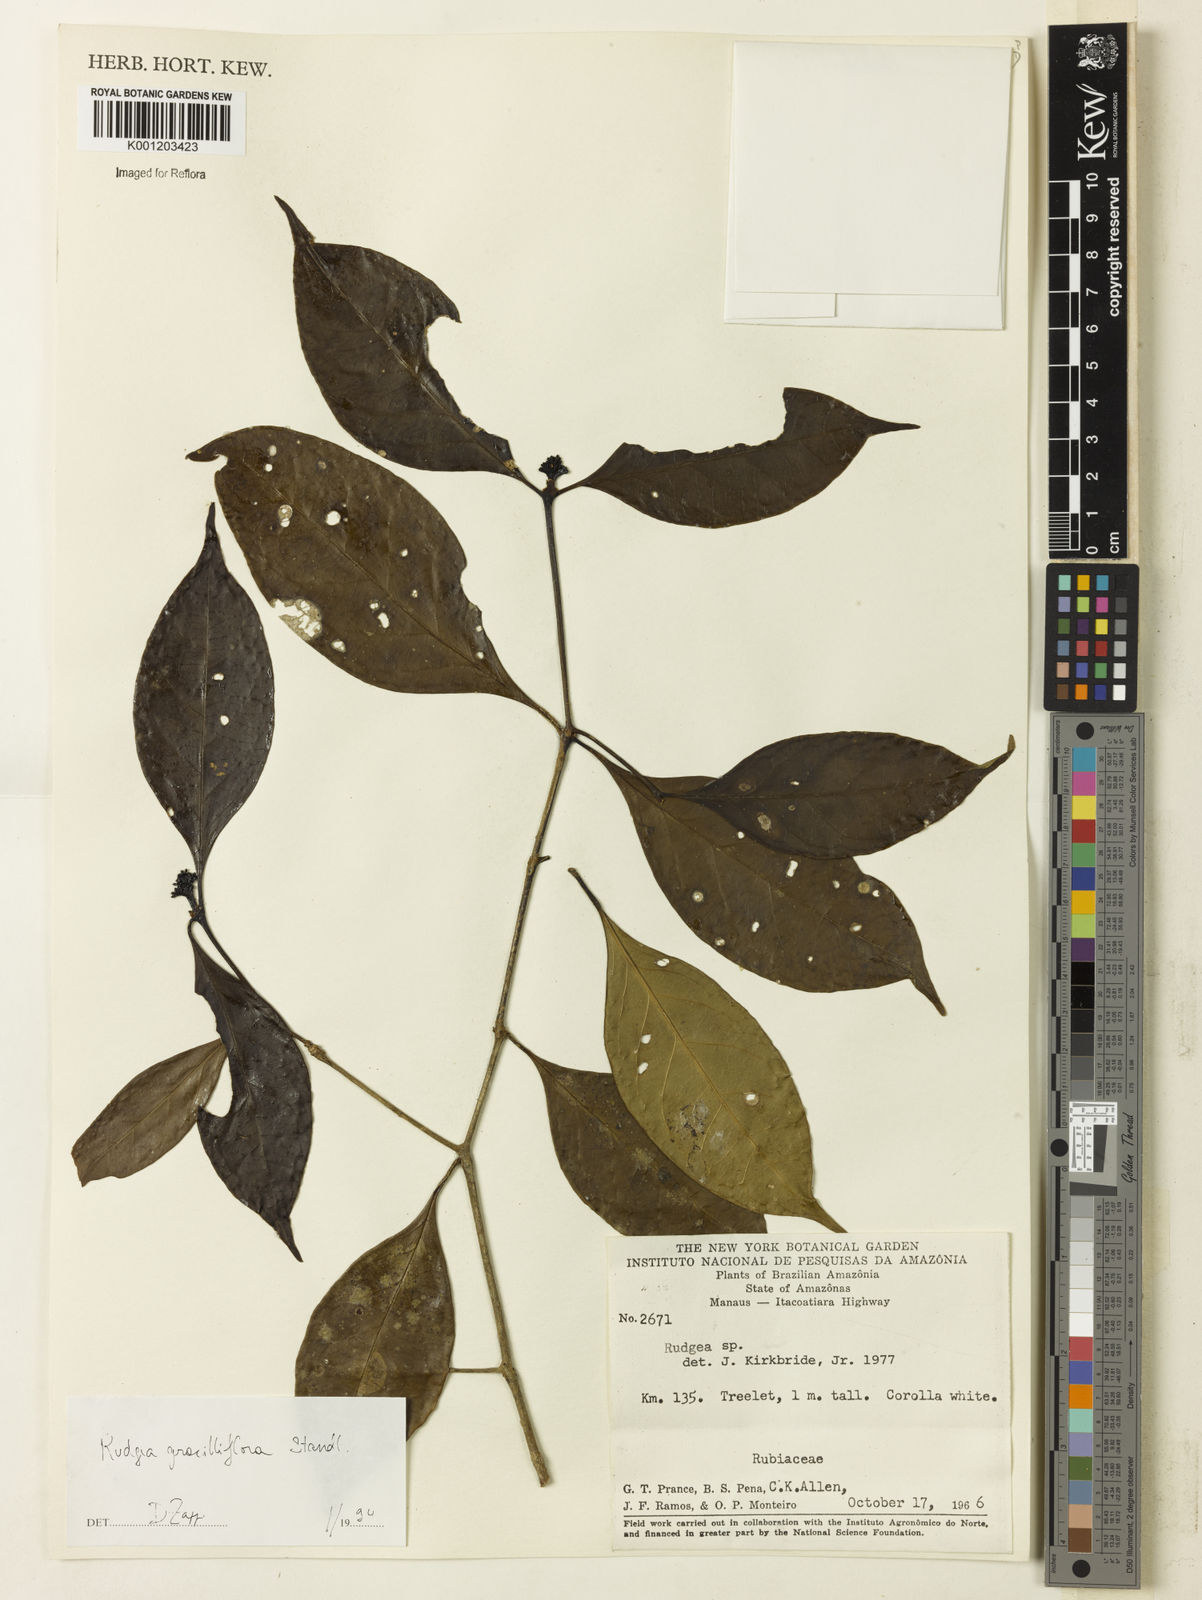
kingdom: Plantae
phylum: Tracheophyta
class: Magnoliopsida
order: Gentianales
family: Rubiaceae
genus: Rudgea
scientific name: Rudgea graciliflora
